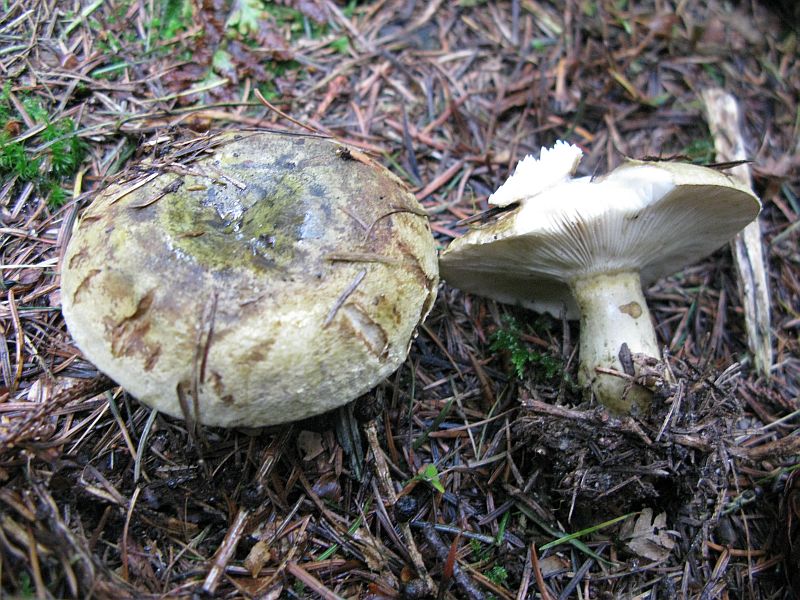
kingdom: Fungi
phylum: Basidiomycota
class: Agaricomycetes
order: Russulales
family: Russulaceae
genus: Lactarius
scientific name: Lactarius necator
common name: manddraber-mælkehat
